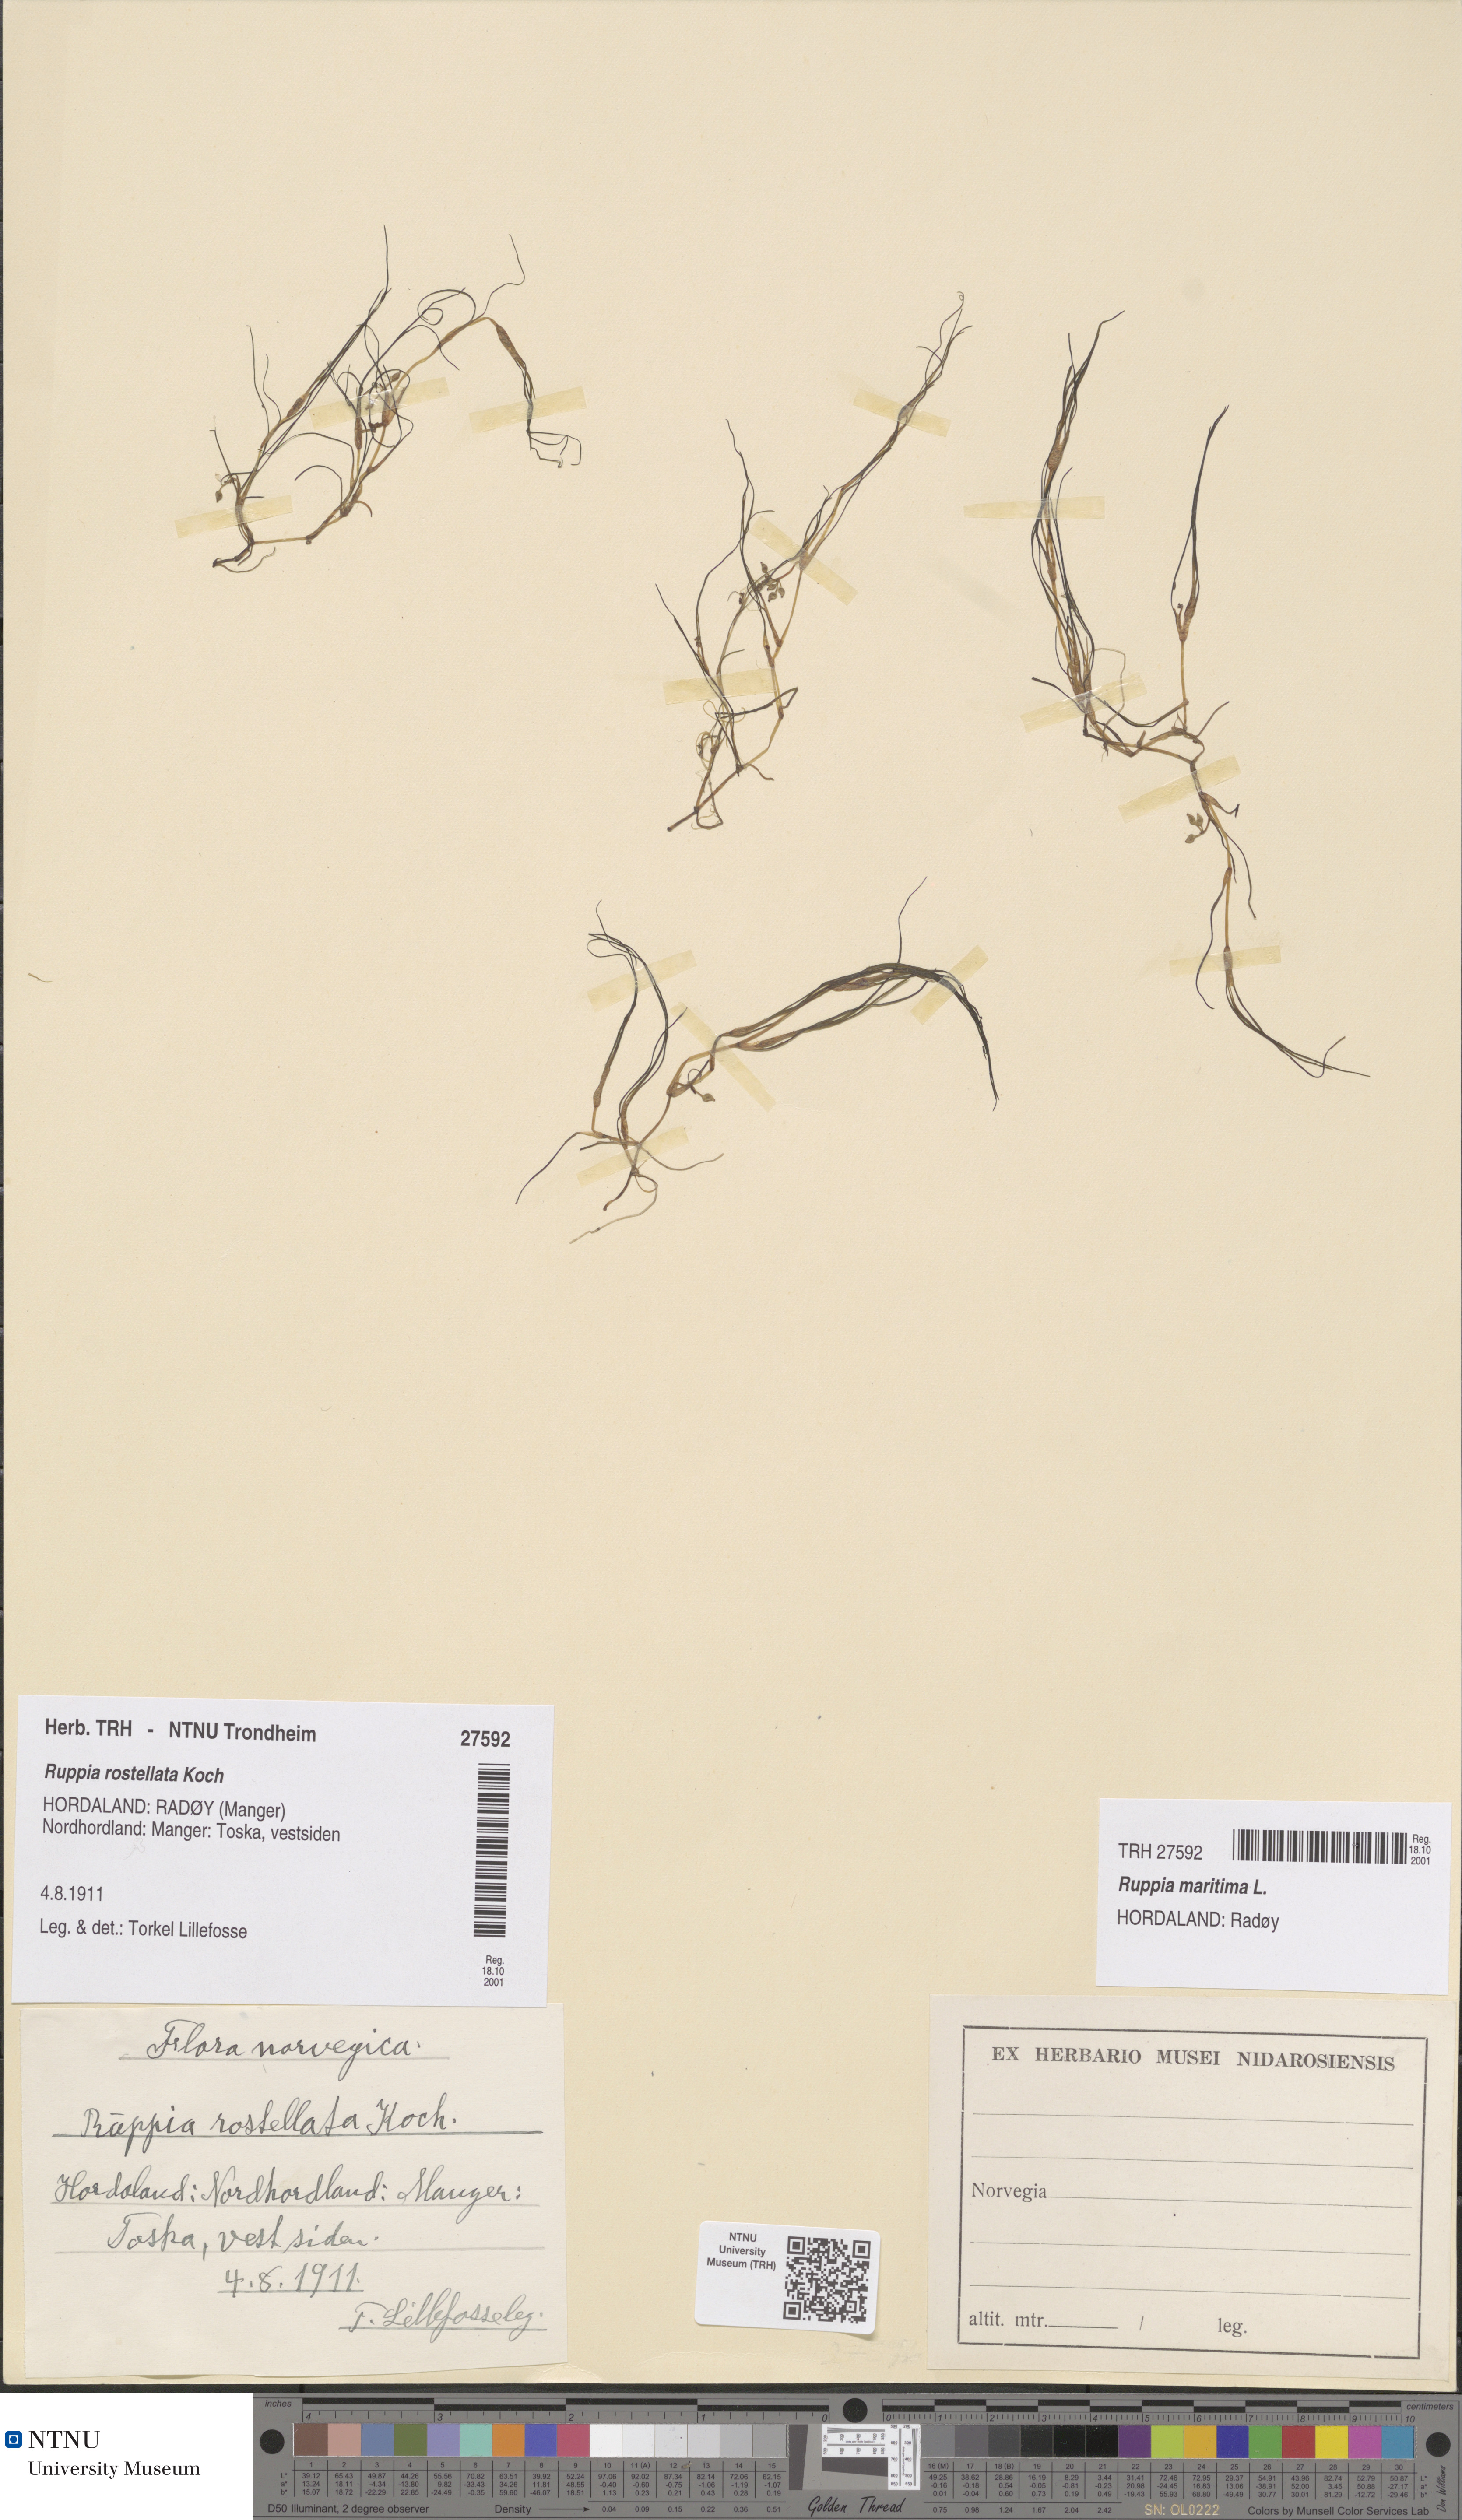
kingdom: Plantae
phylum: Tracheophyta
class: Liliopsida
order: Alismatales
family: Ruppiaceae
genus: Ruppia
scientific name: Ruppia maritima
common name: Beaked tasselweed
